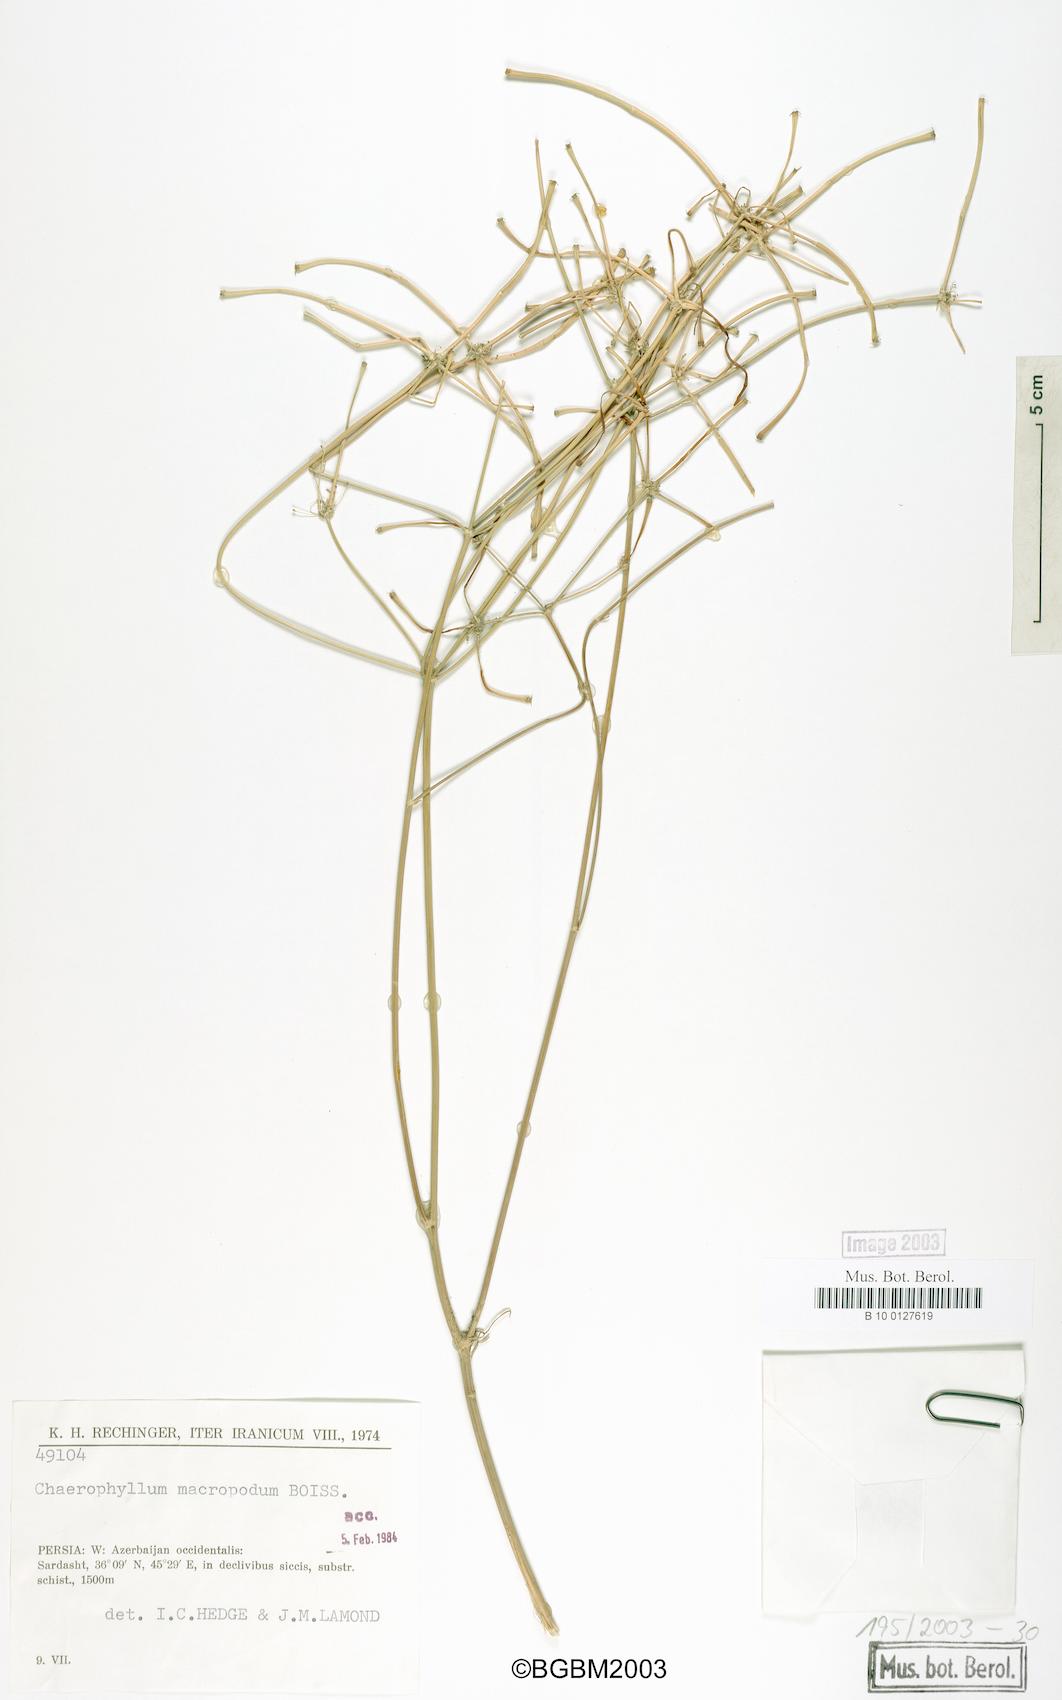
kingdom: Plantae
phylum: Tracheophyta
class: Magnoliopsida
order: Apiales
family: Apiaceae
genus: Chaerophyllum
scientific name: Chaerophyllum macropodum
